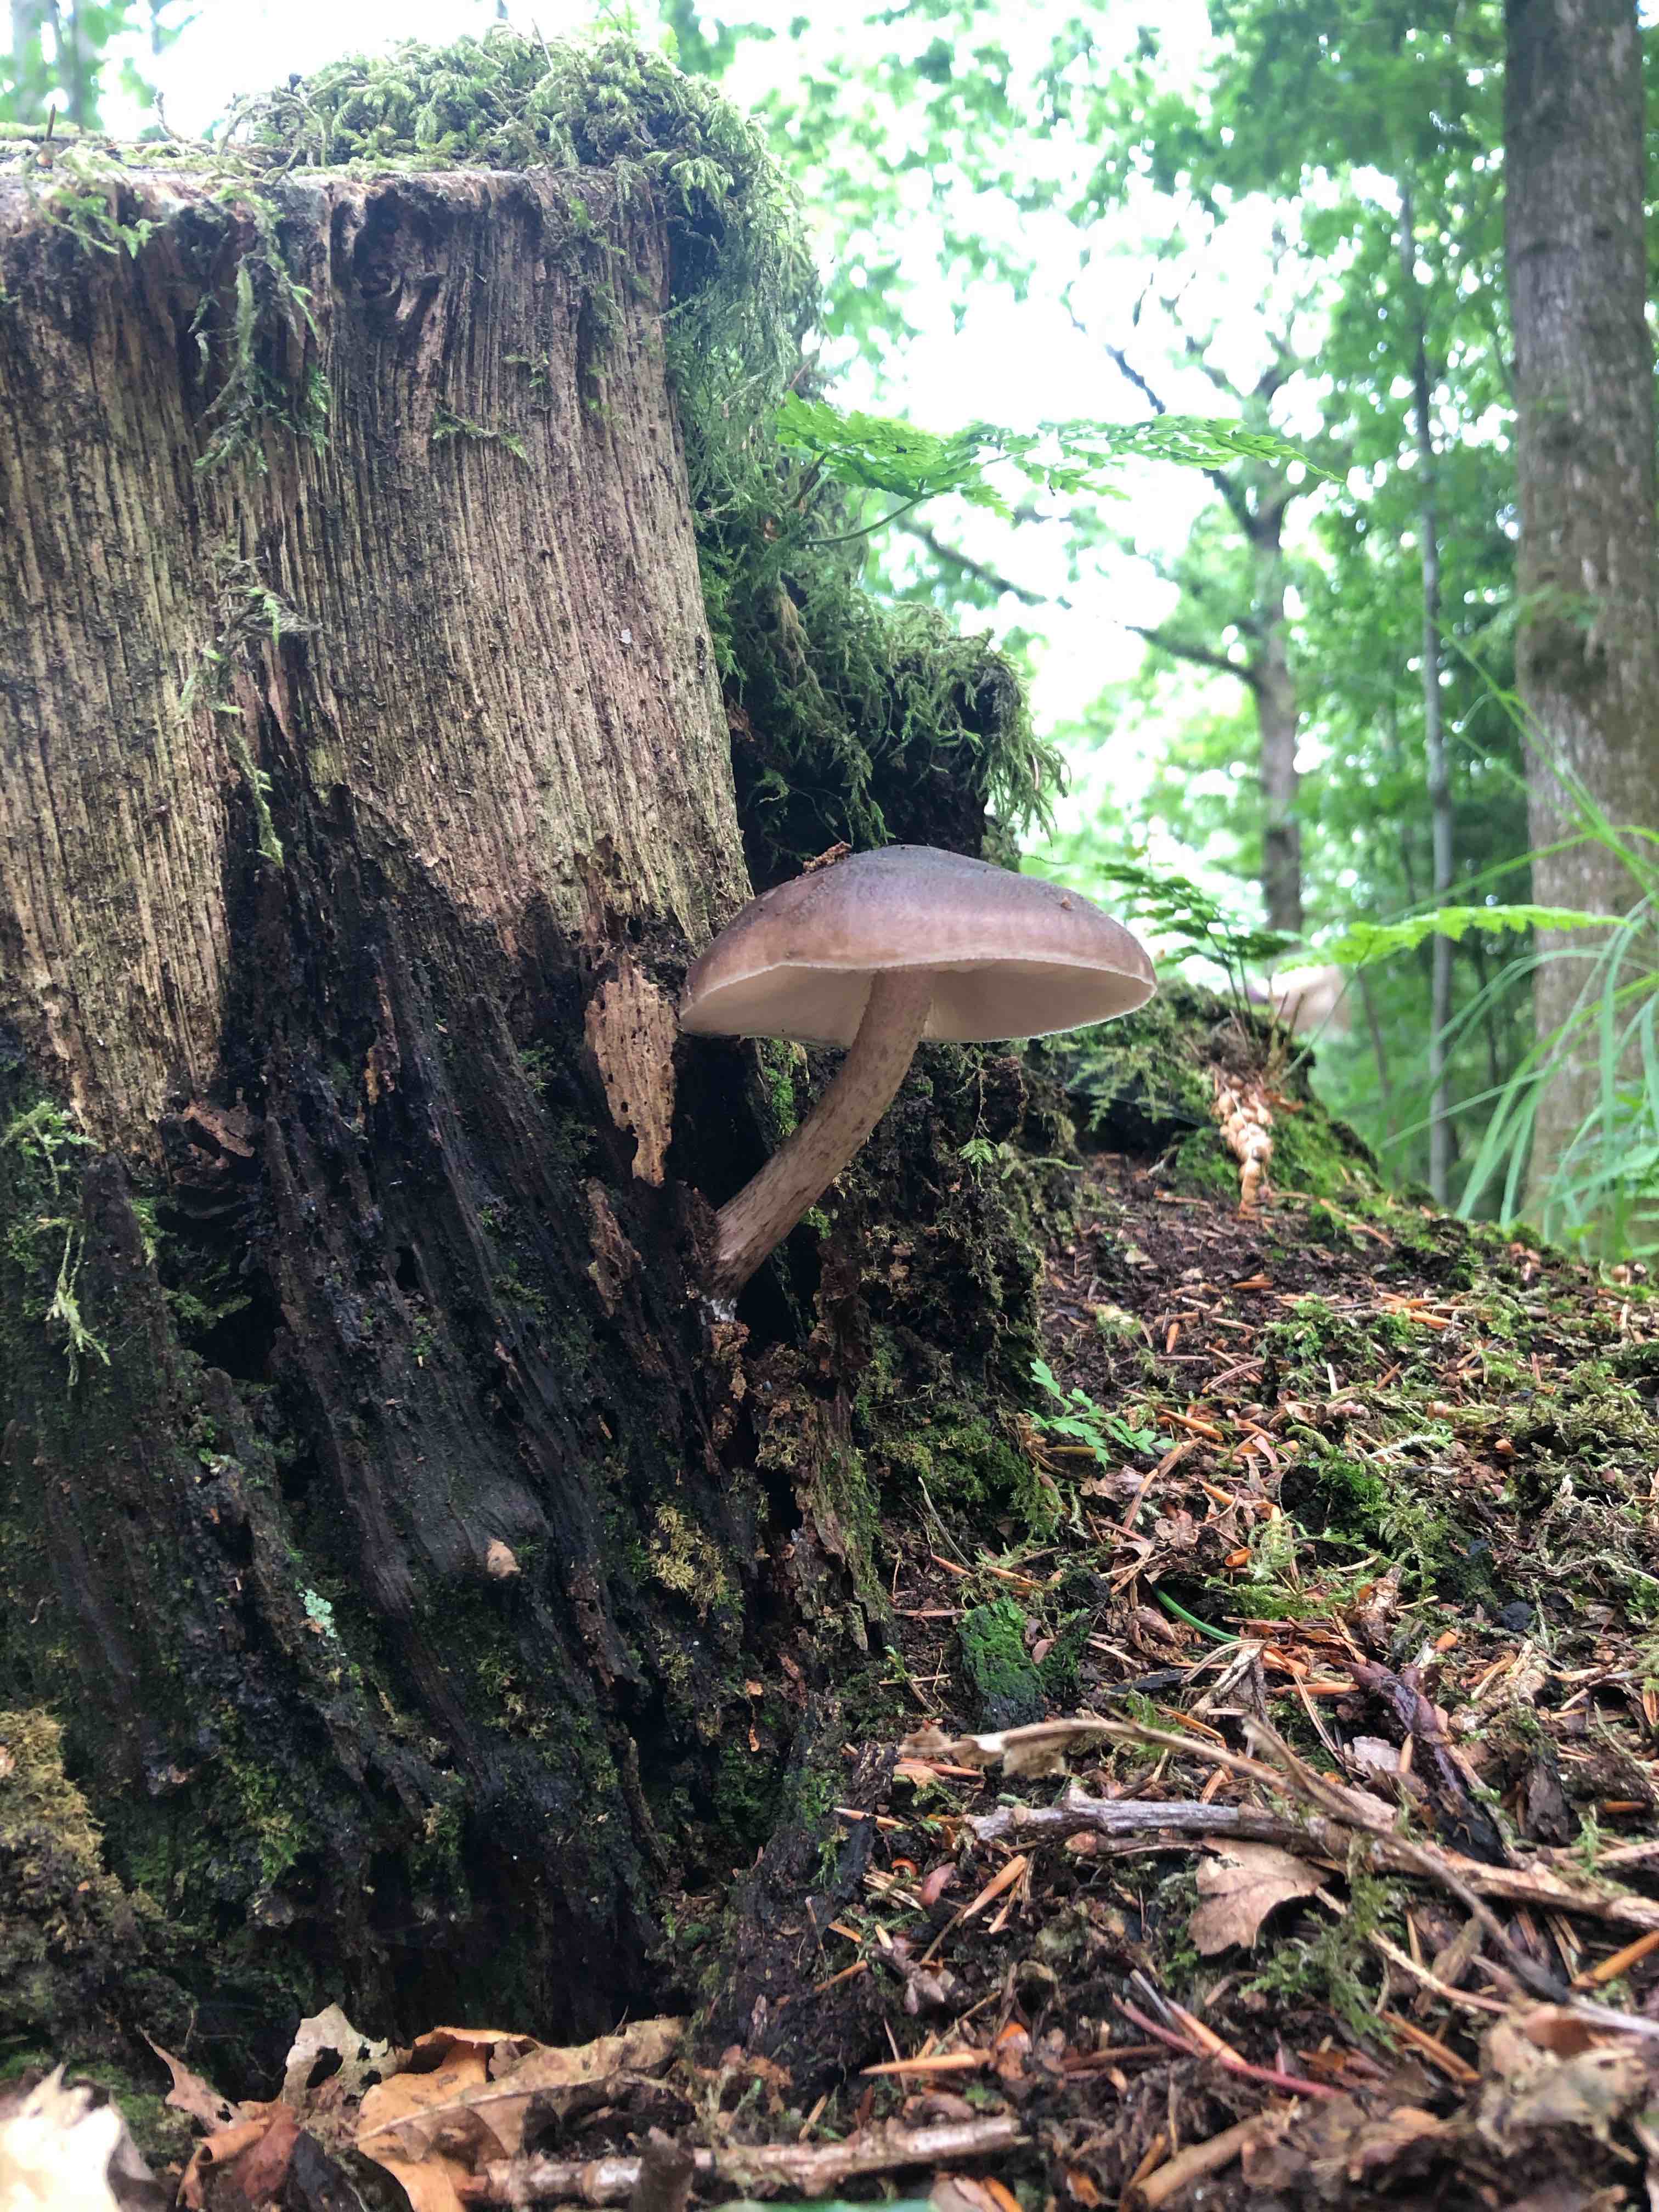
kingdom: Fungi
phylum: Basidiomycota
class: Agaricomycetes
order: Agaricales
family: Pluteaceae
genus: Pluteus
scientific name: Pluteus cervinus
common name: sodfarvet skærmhat
